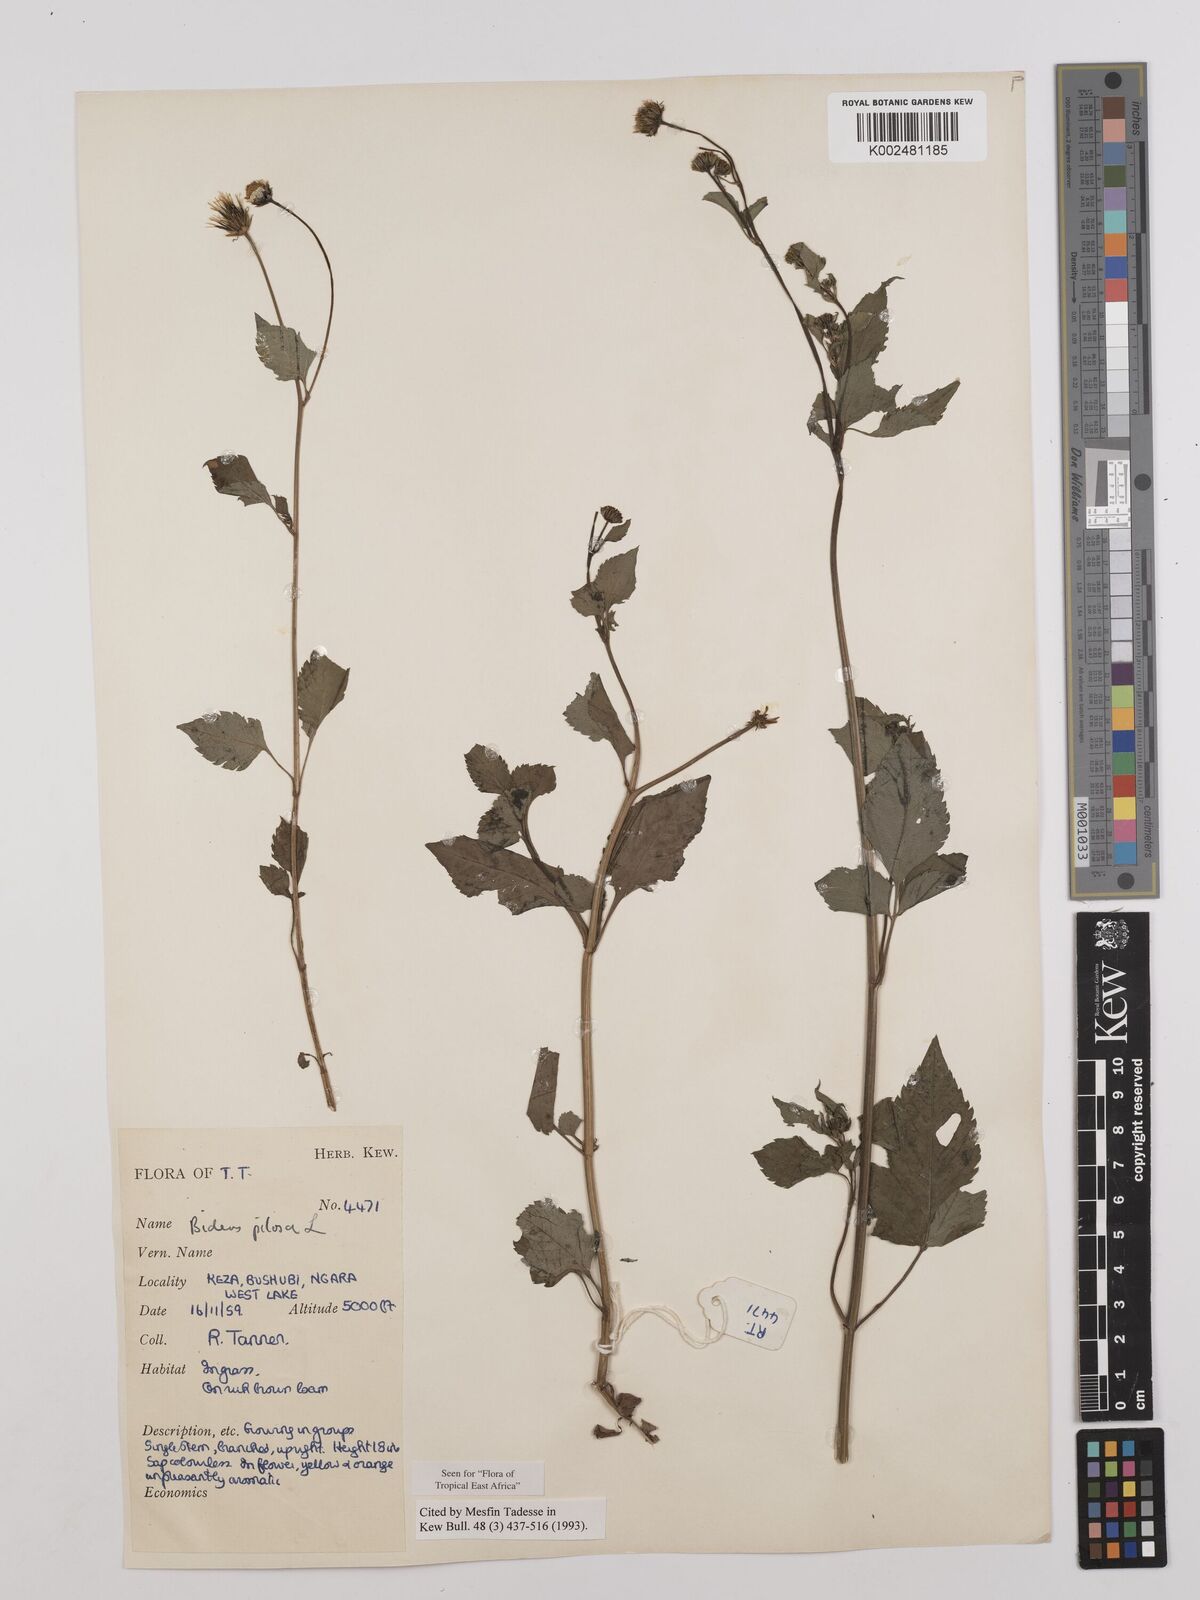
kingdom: Plantae
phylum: Tracheophyta
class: Magnoliopsida
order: Asterales
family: Asteraceae
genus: Bidens
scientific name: Bidens pilosa
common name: Black-jack
